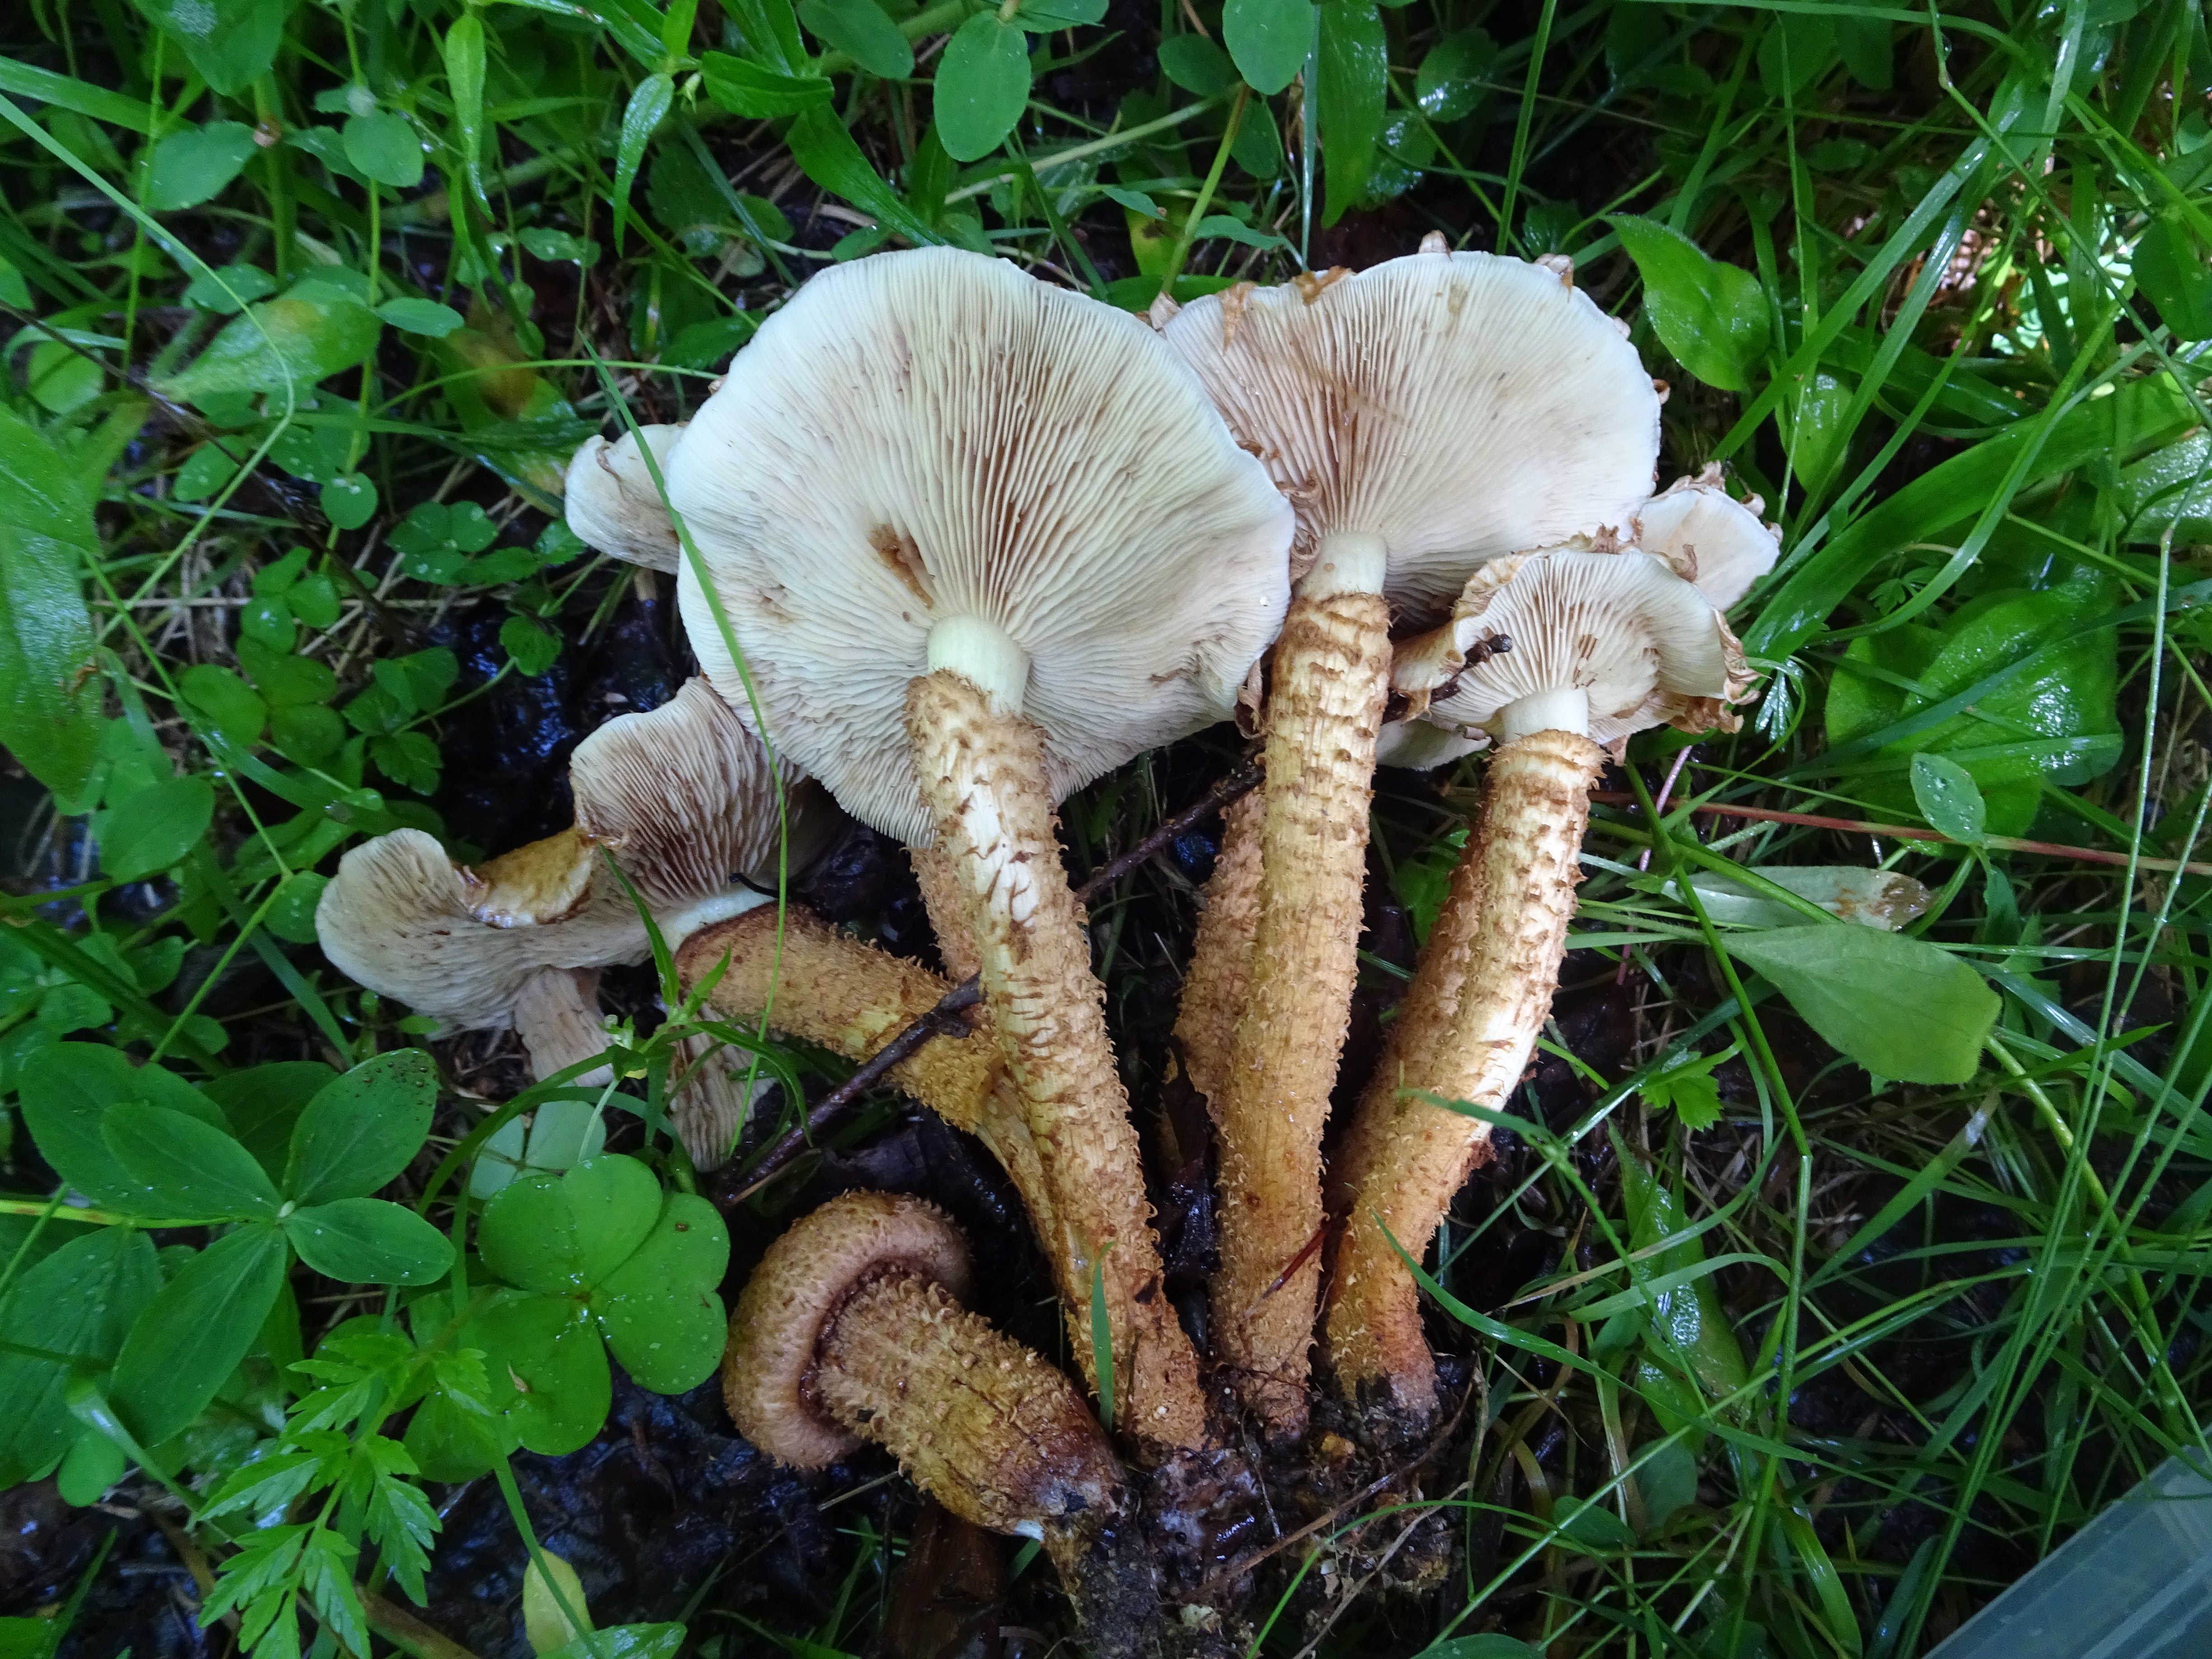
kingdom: Fungi
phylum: Basidiomycota
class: Agaricomycetes
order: Agaricales
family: Strophariaceae
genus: Pholiota
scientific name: Pholiota lundbergii
